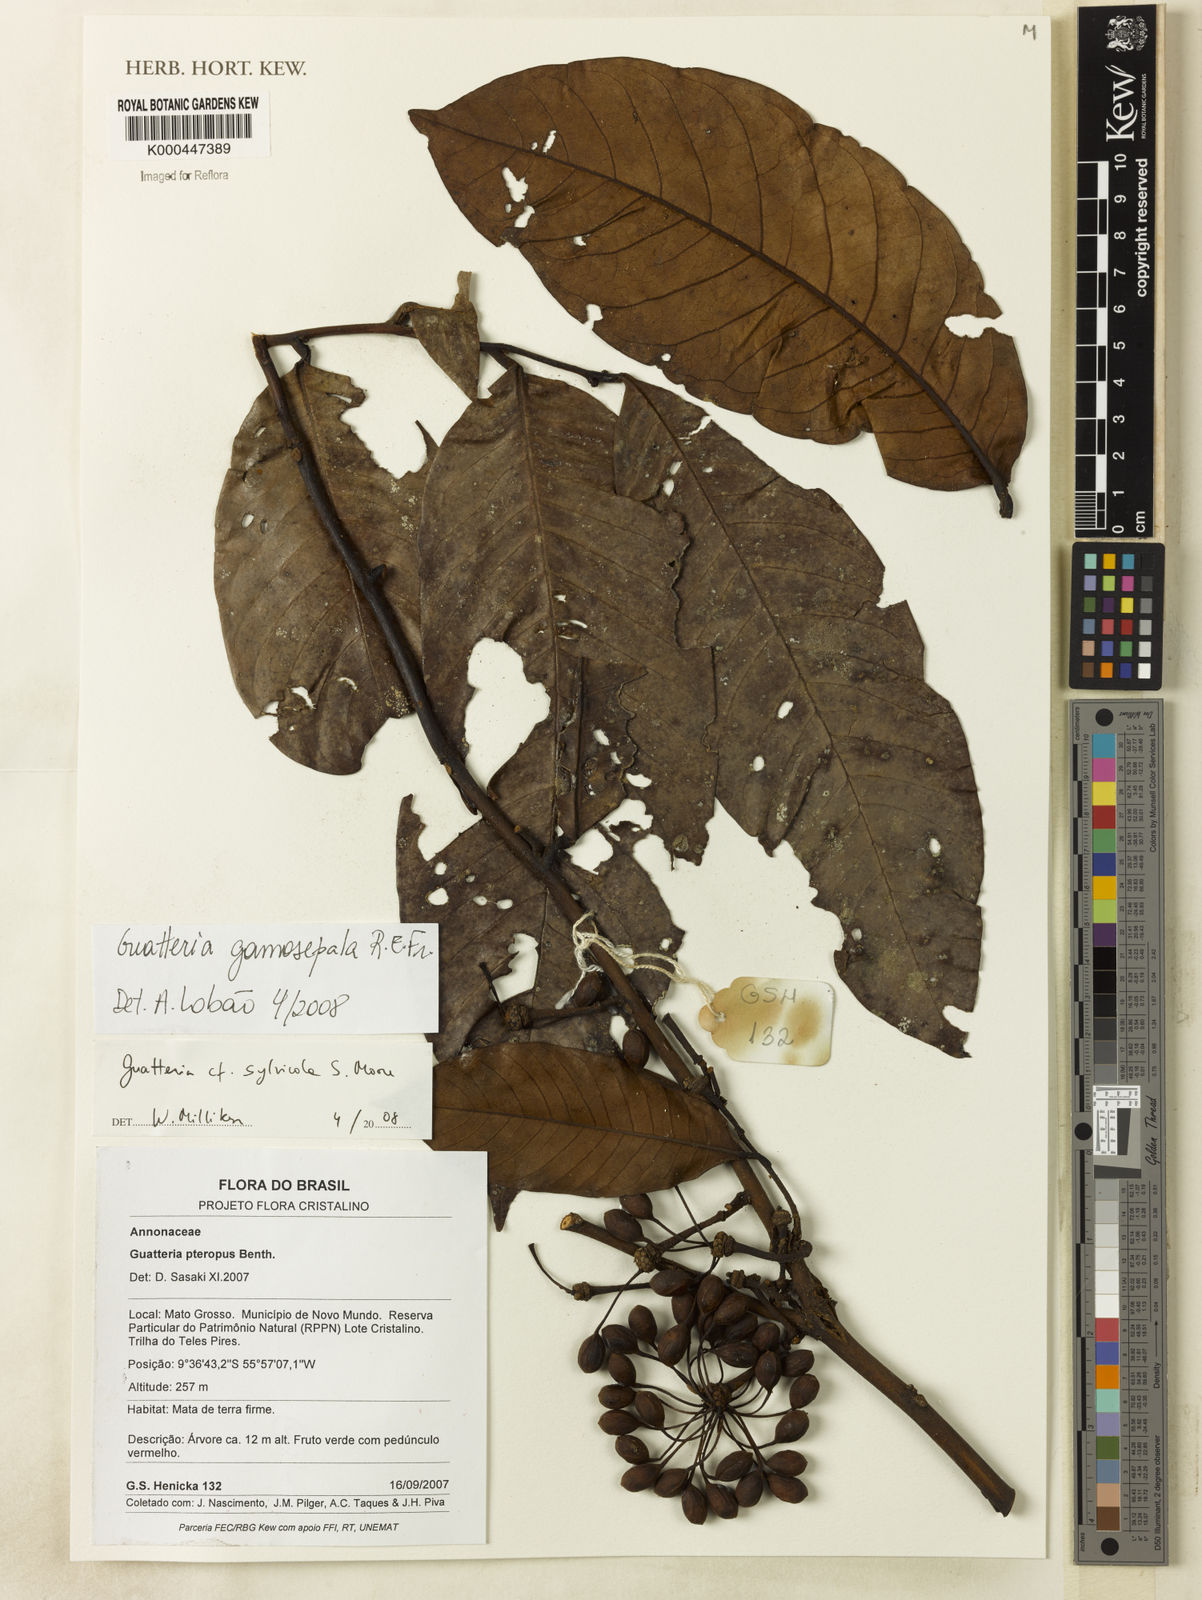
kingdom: Plantae
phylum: Tracheophyta
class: Magnoliopsida
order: Magnoliales
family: Annonaceae
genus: Guatteria
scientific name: Guatteria punctata
